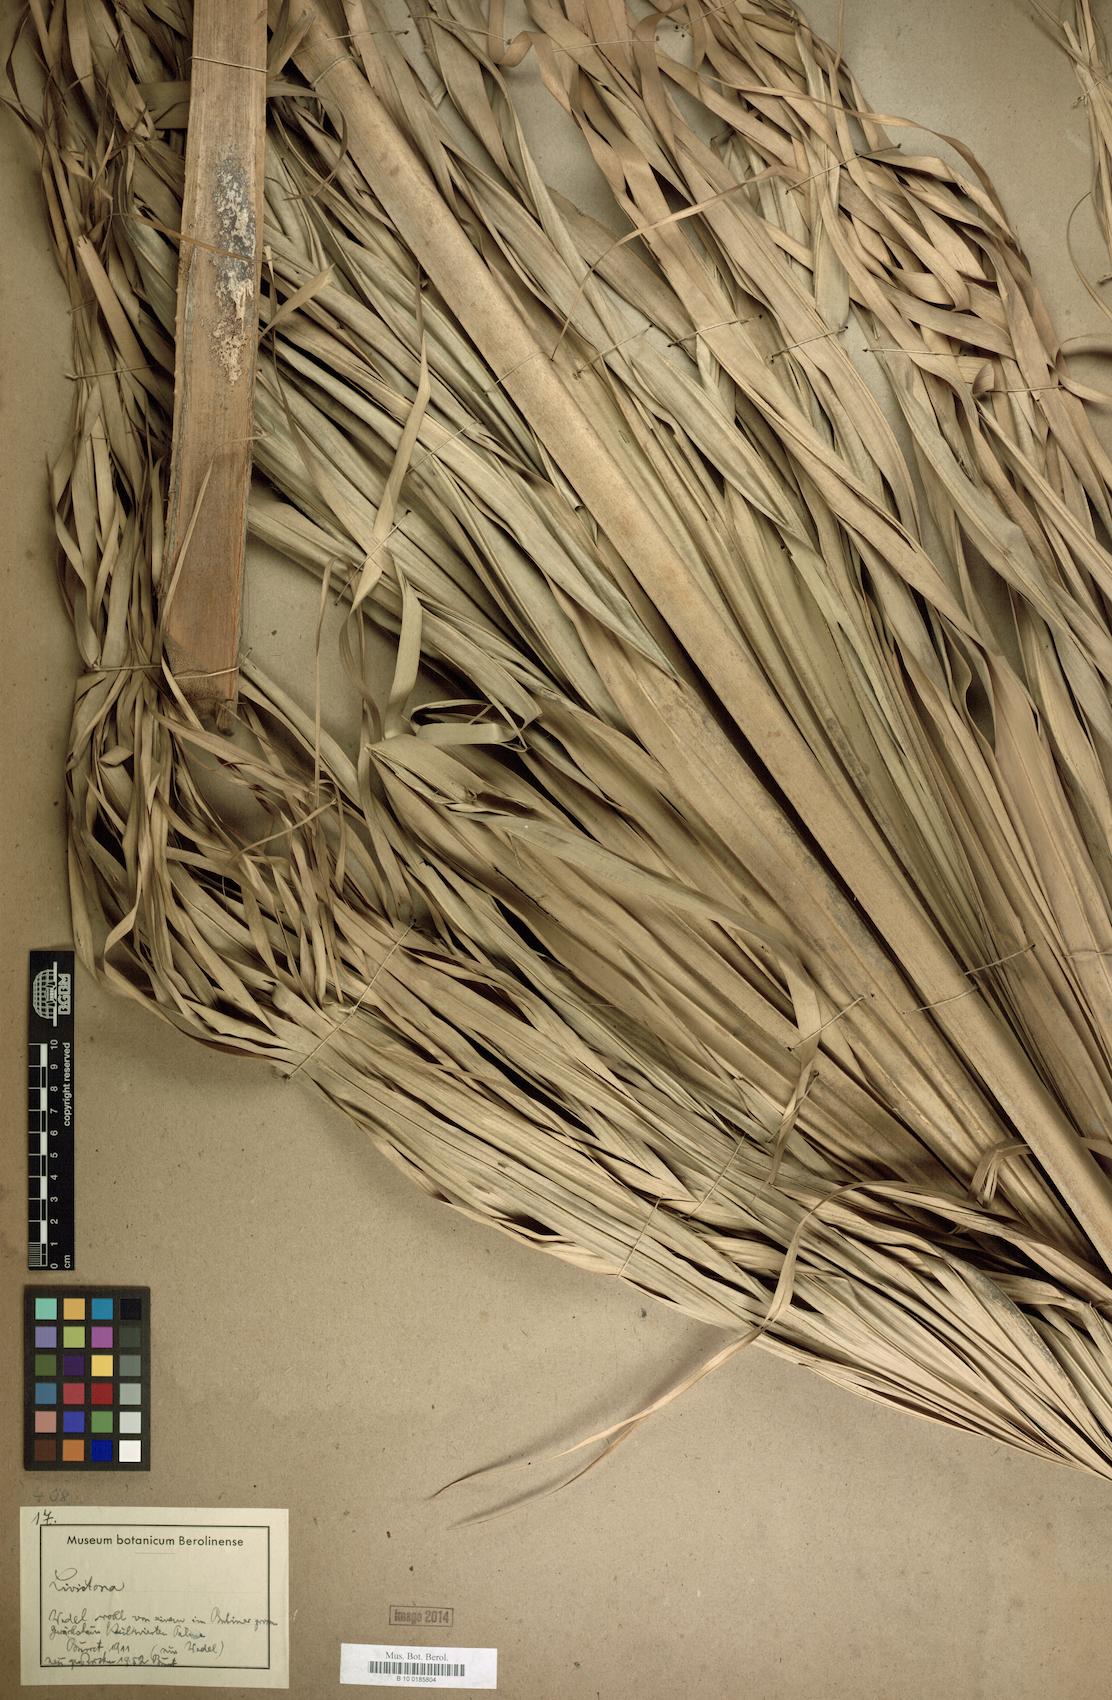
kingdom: Plantae
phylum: Tracheophyta
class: Liliopsida
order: Arecales
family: Arecaceae
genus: Livistona
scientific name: Livistona
